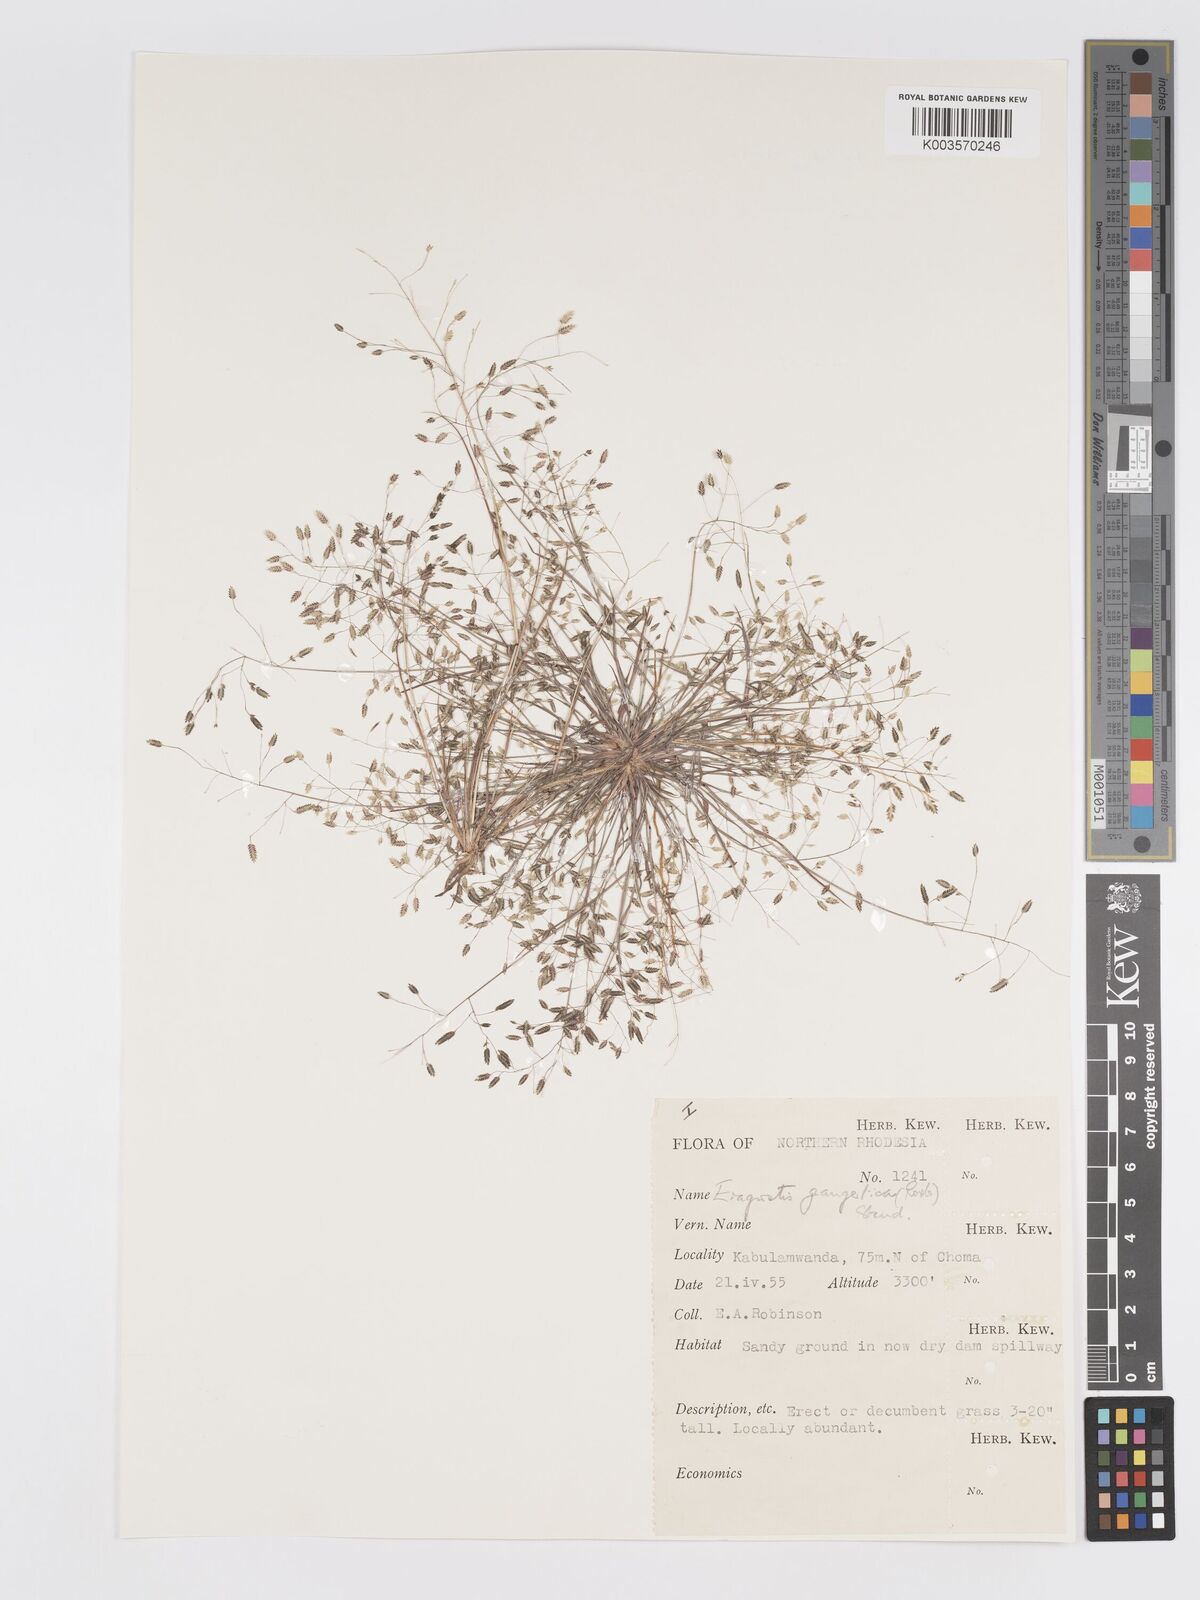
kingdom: Plantae
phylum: Tracheophyta
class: Liliopsida
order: Poales
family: Poaceae
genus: Eragrostis
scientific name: Eragrostis gangetica
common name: Slimflower lovegrass
